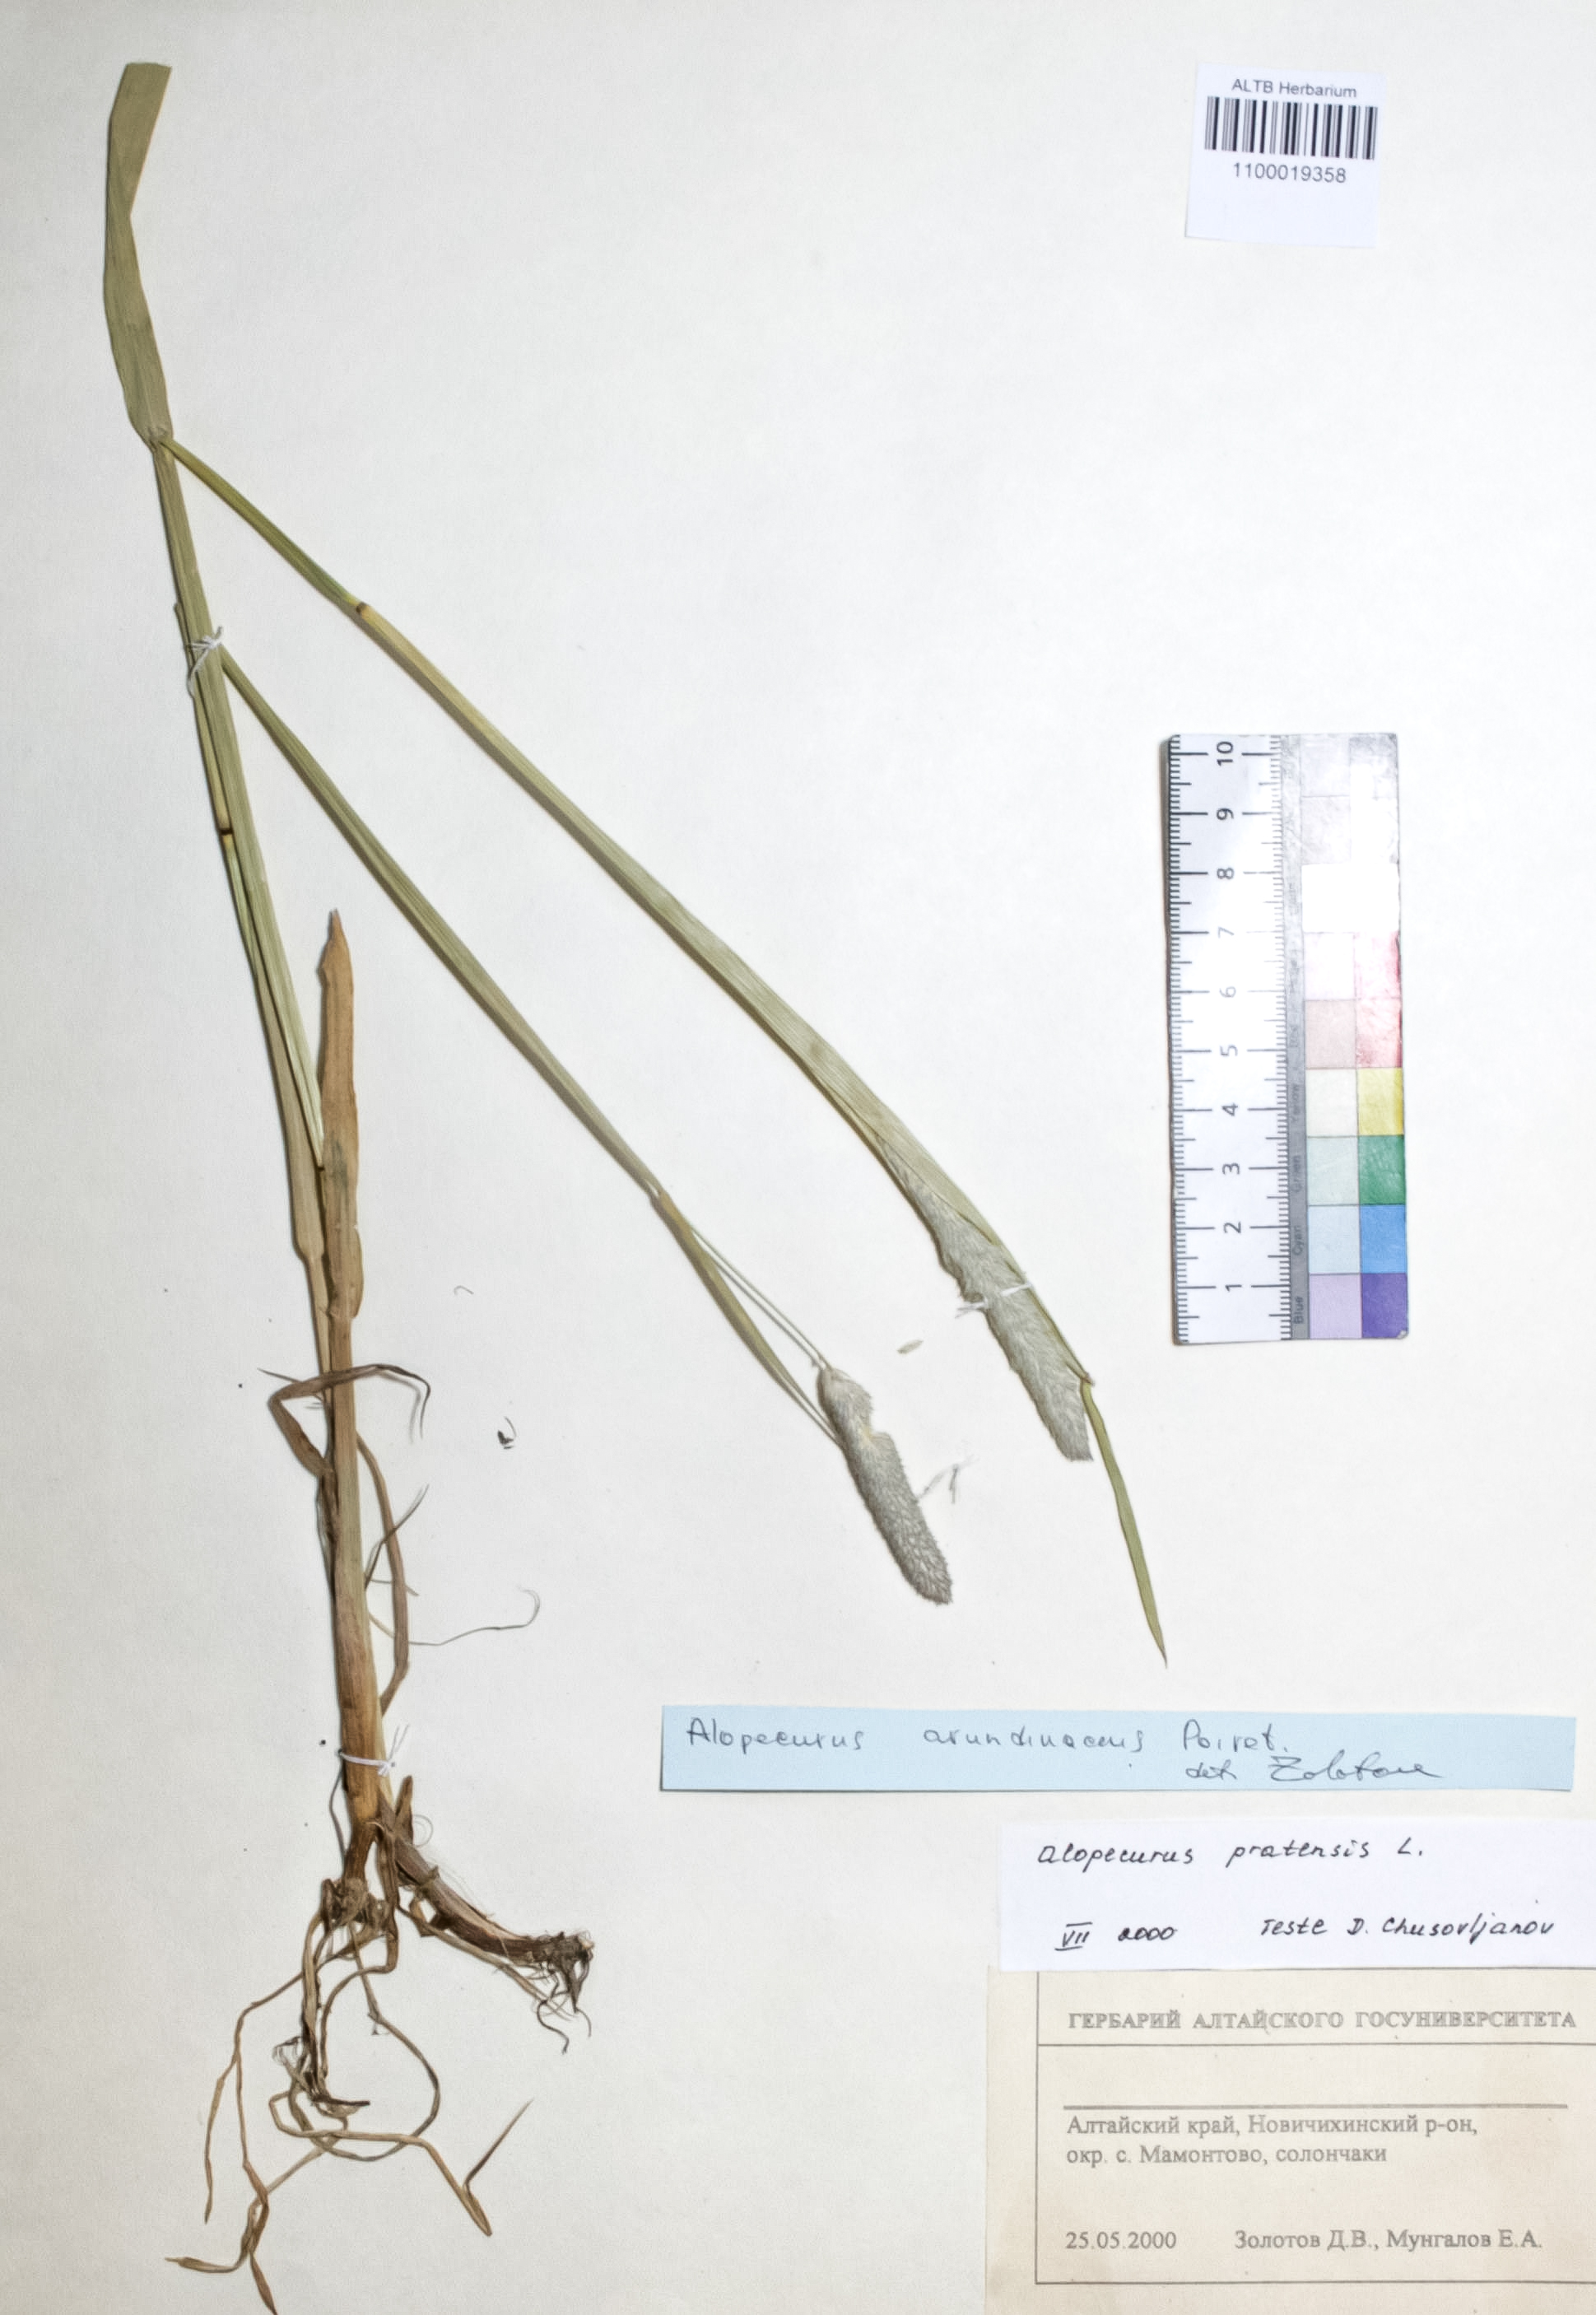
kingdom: Plantae
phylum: Tracheophyta
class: Liliopsida
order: Poales
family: Poaceae
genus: Alopecurus
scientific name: Alopecurus pratensis
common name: Meadow foxtail
